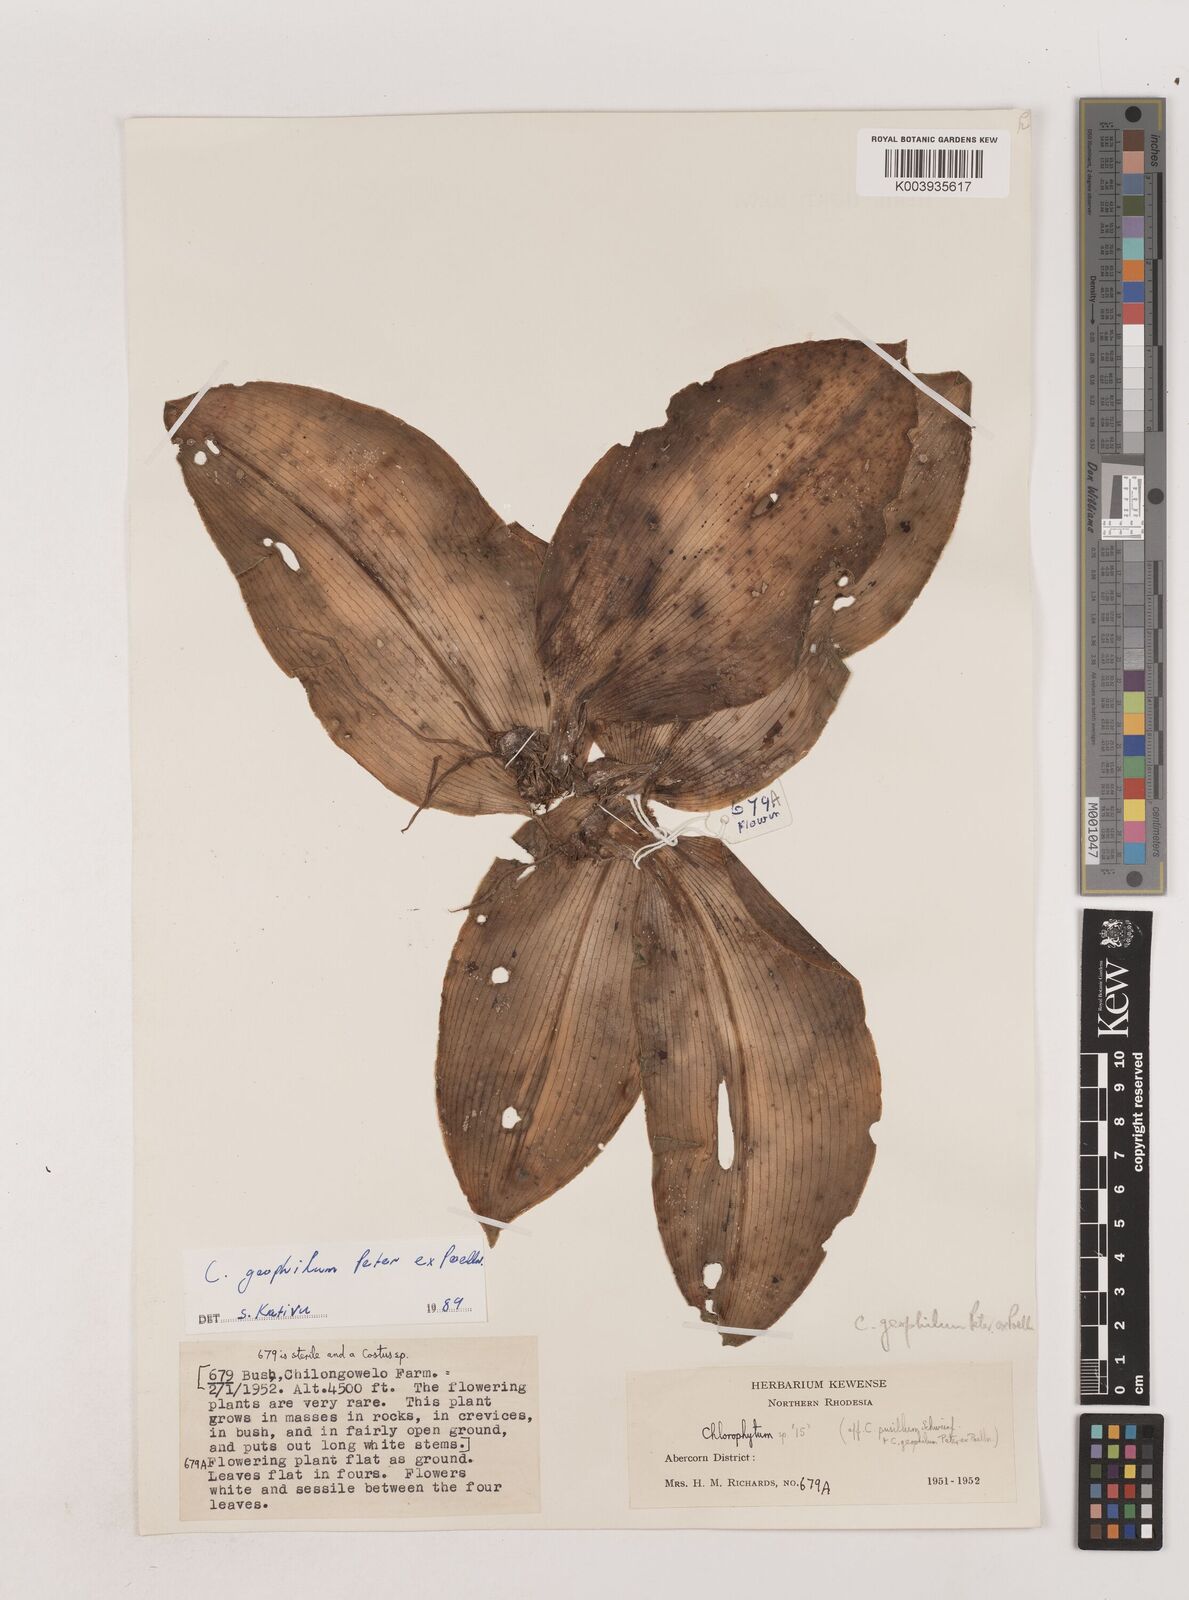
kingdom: Plantae
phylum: Tracheophyta
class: Liliopsida
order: Asparagales
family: Asparagaceae
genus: Chlorophytum
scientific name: Chlorophytum geophilum
